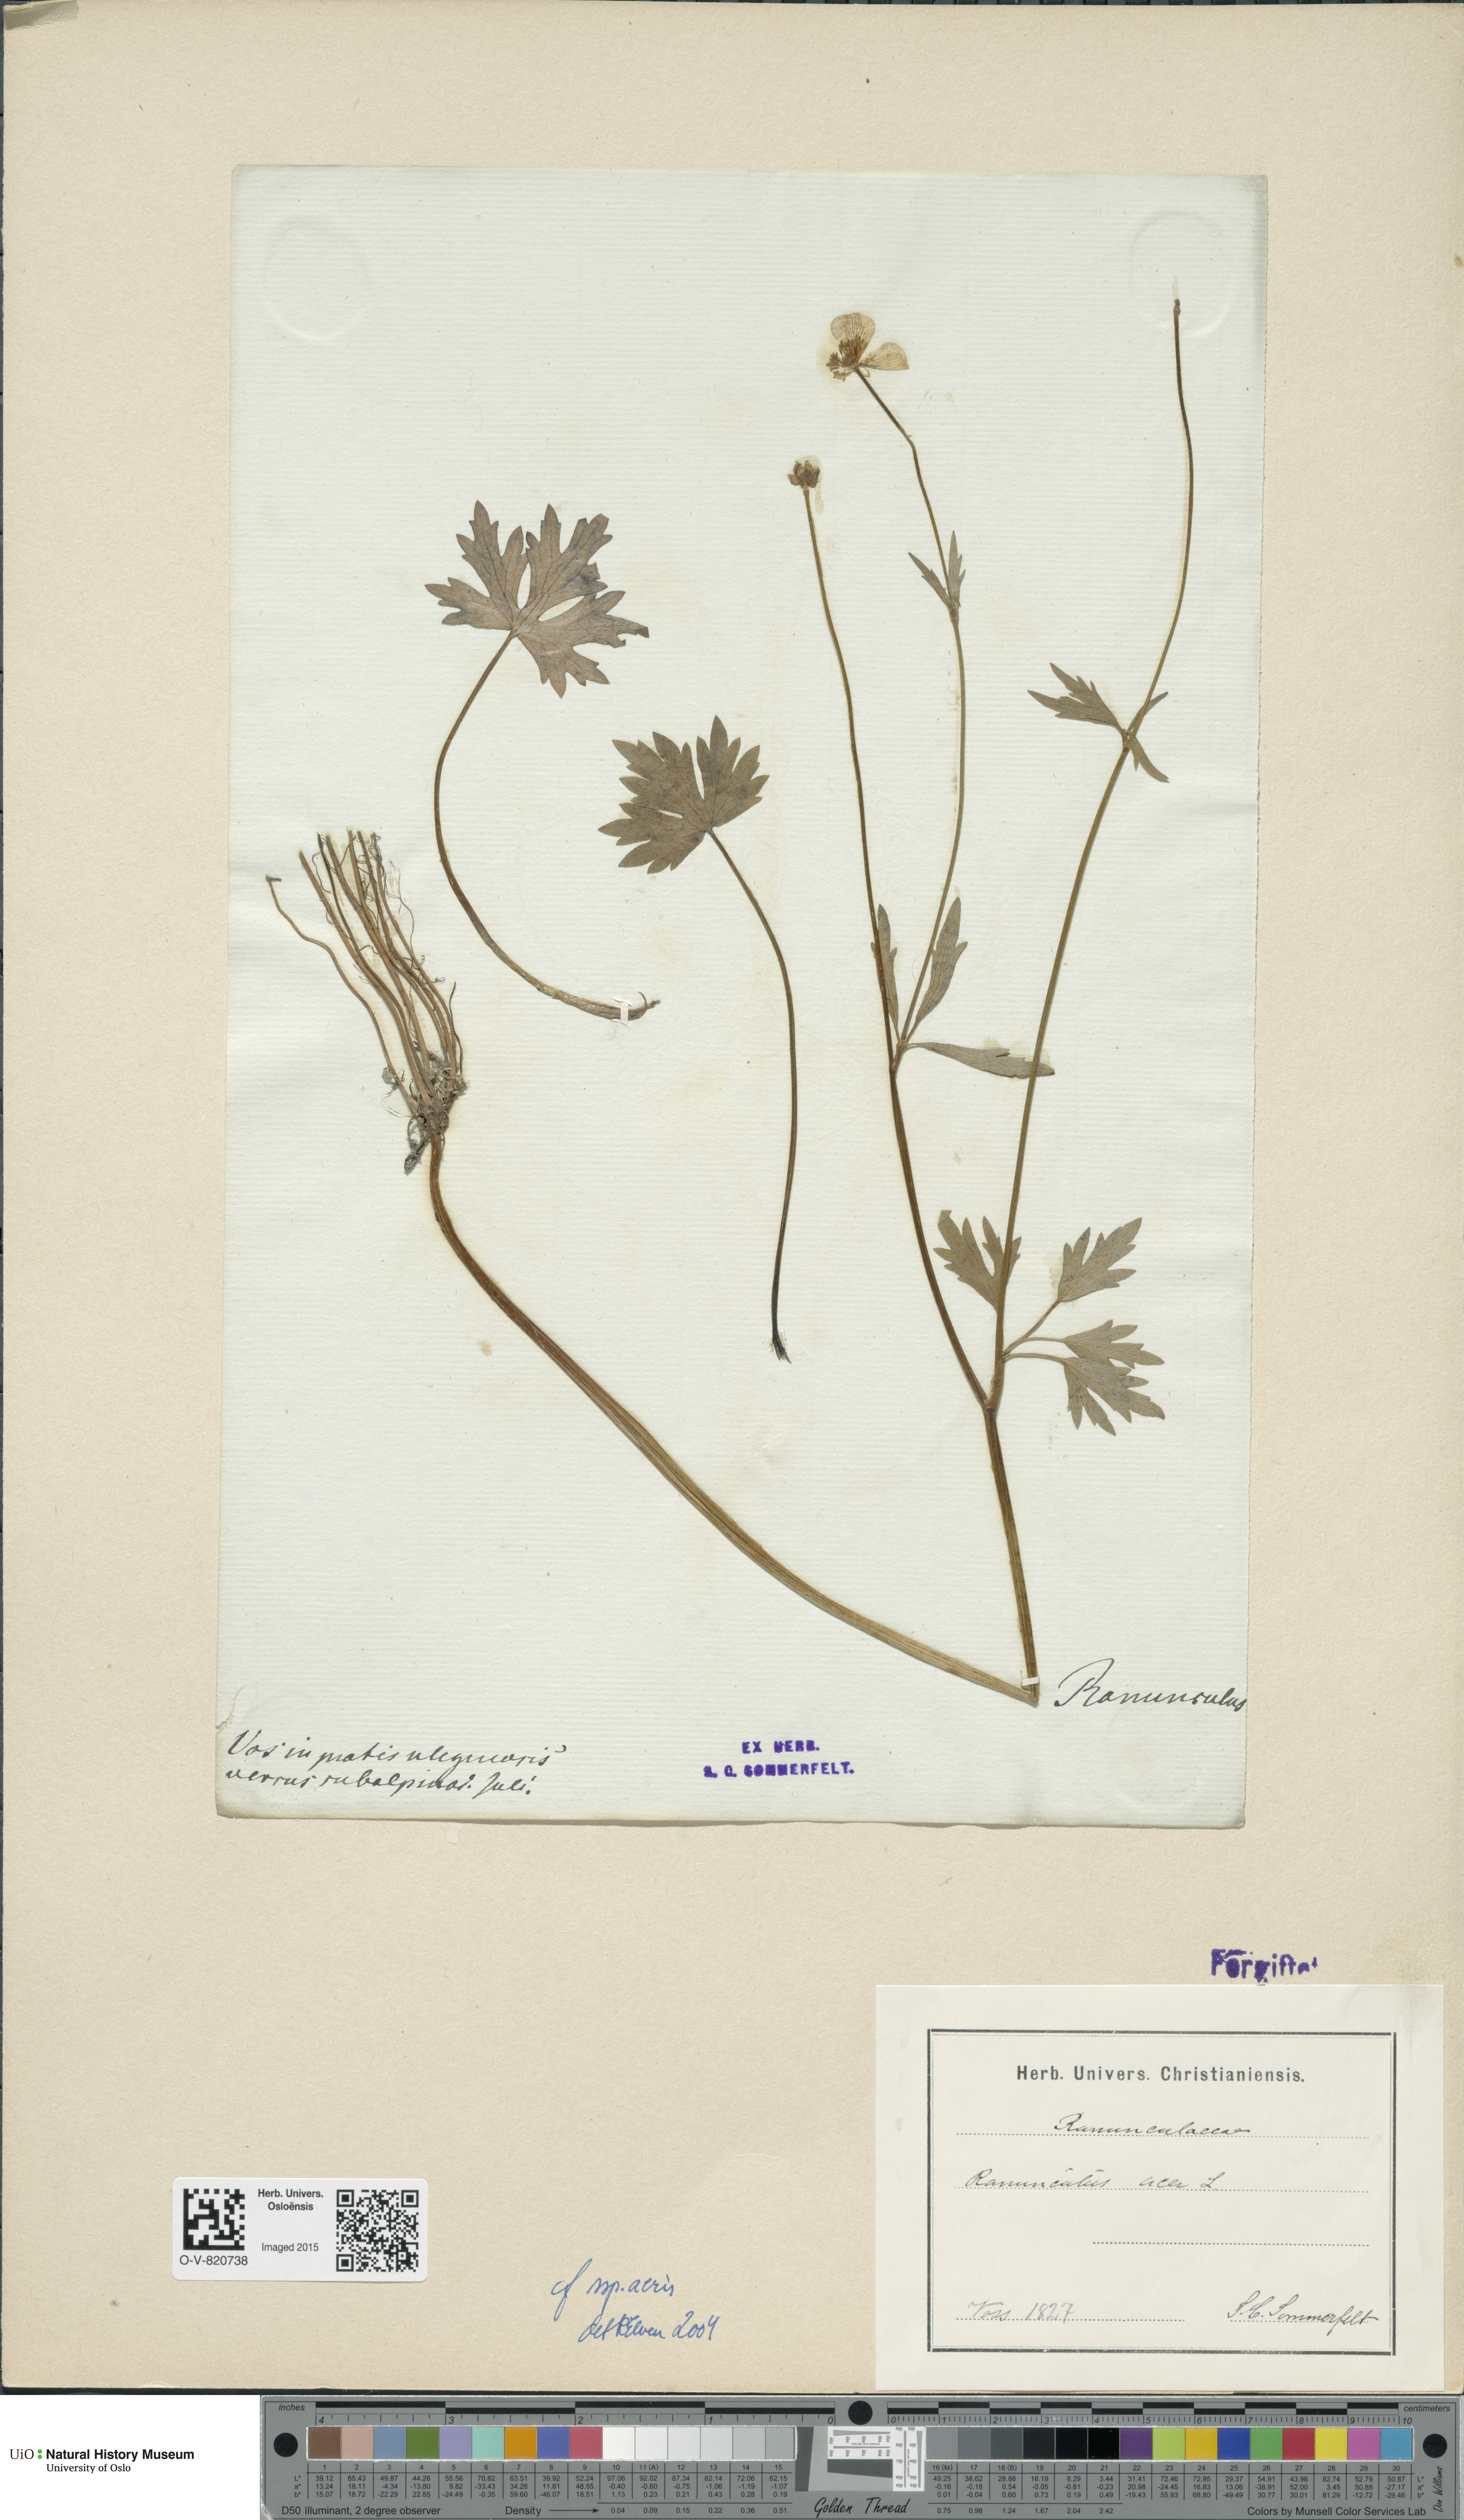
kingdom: Plantae
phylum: Tracheophyta
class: Magnoliopsida
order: Ranunculales
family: Ranunculaceae
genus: Ranunculus
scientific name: Ranunculus acris
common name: Meadow buttercup
